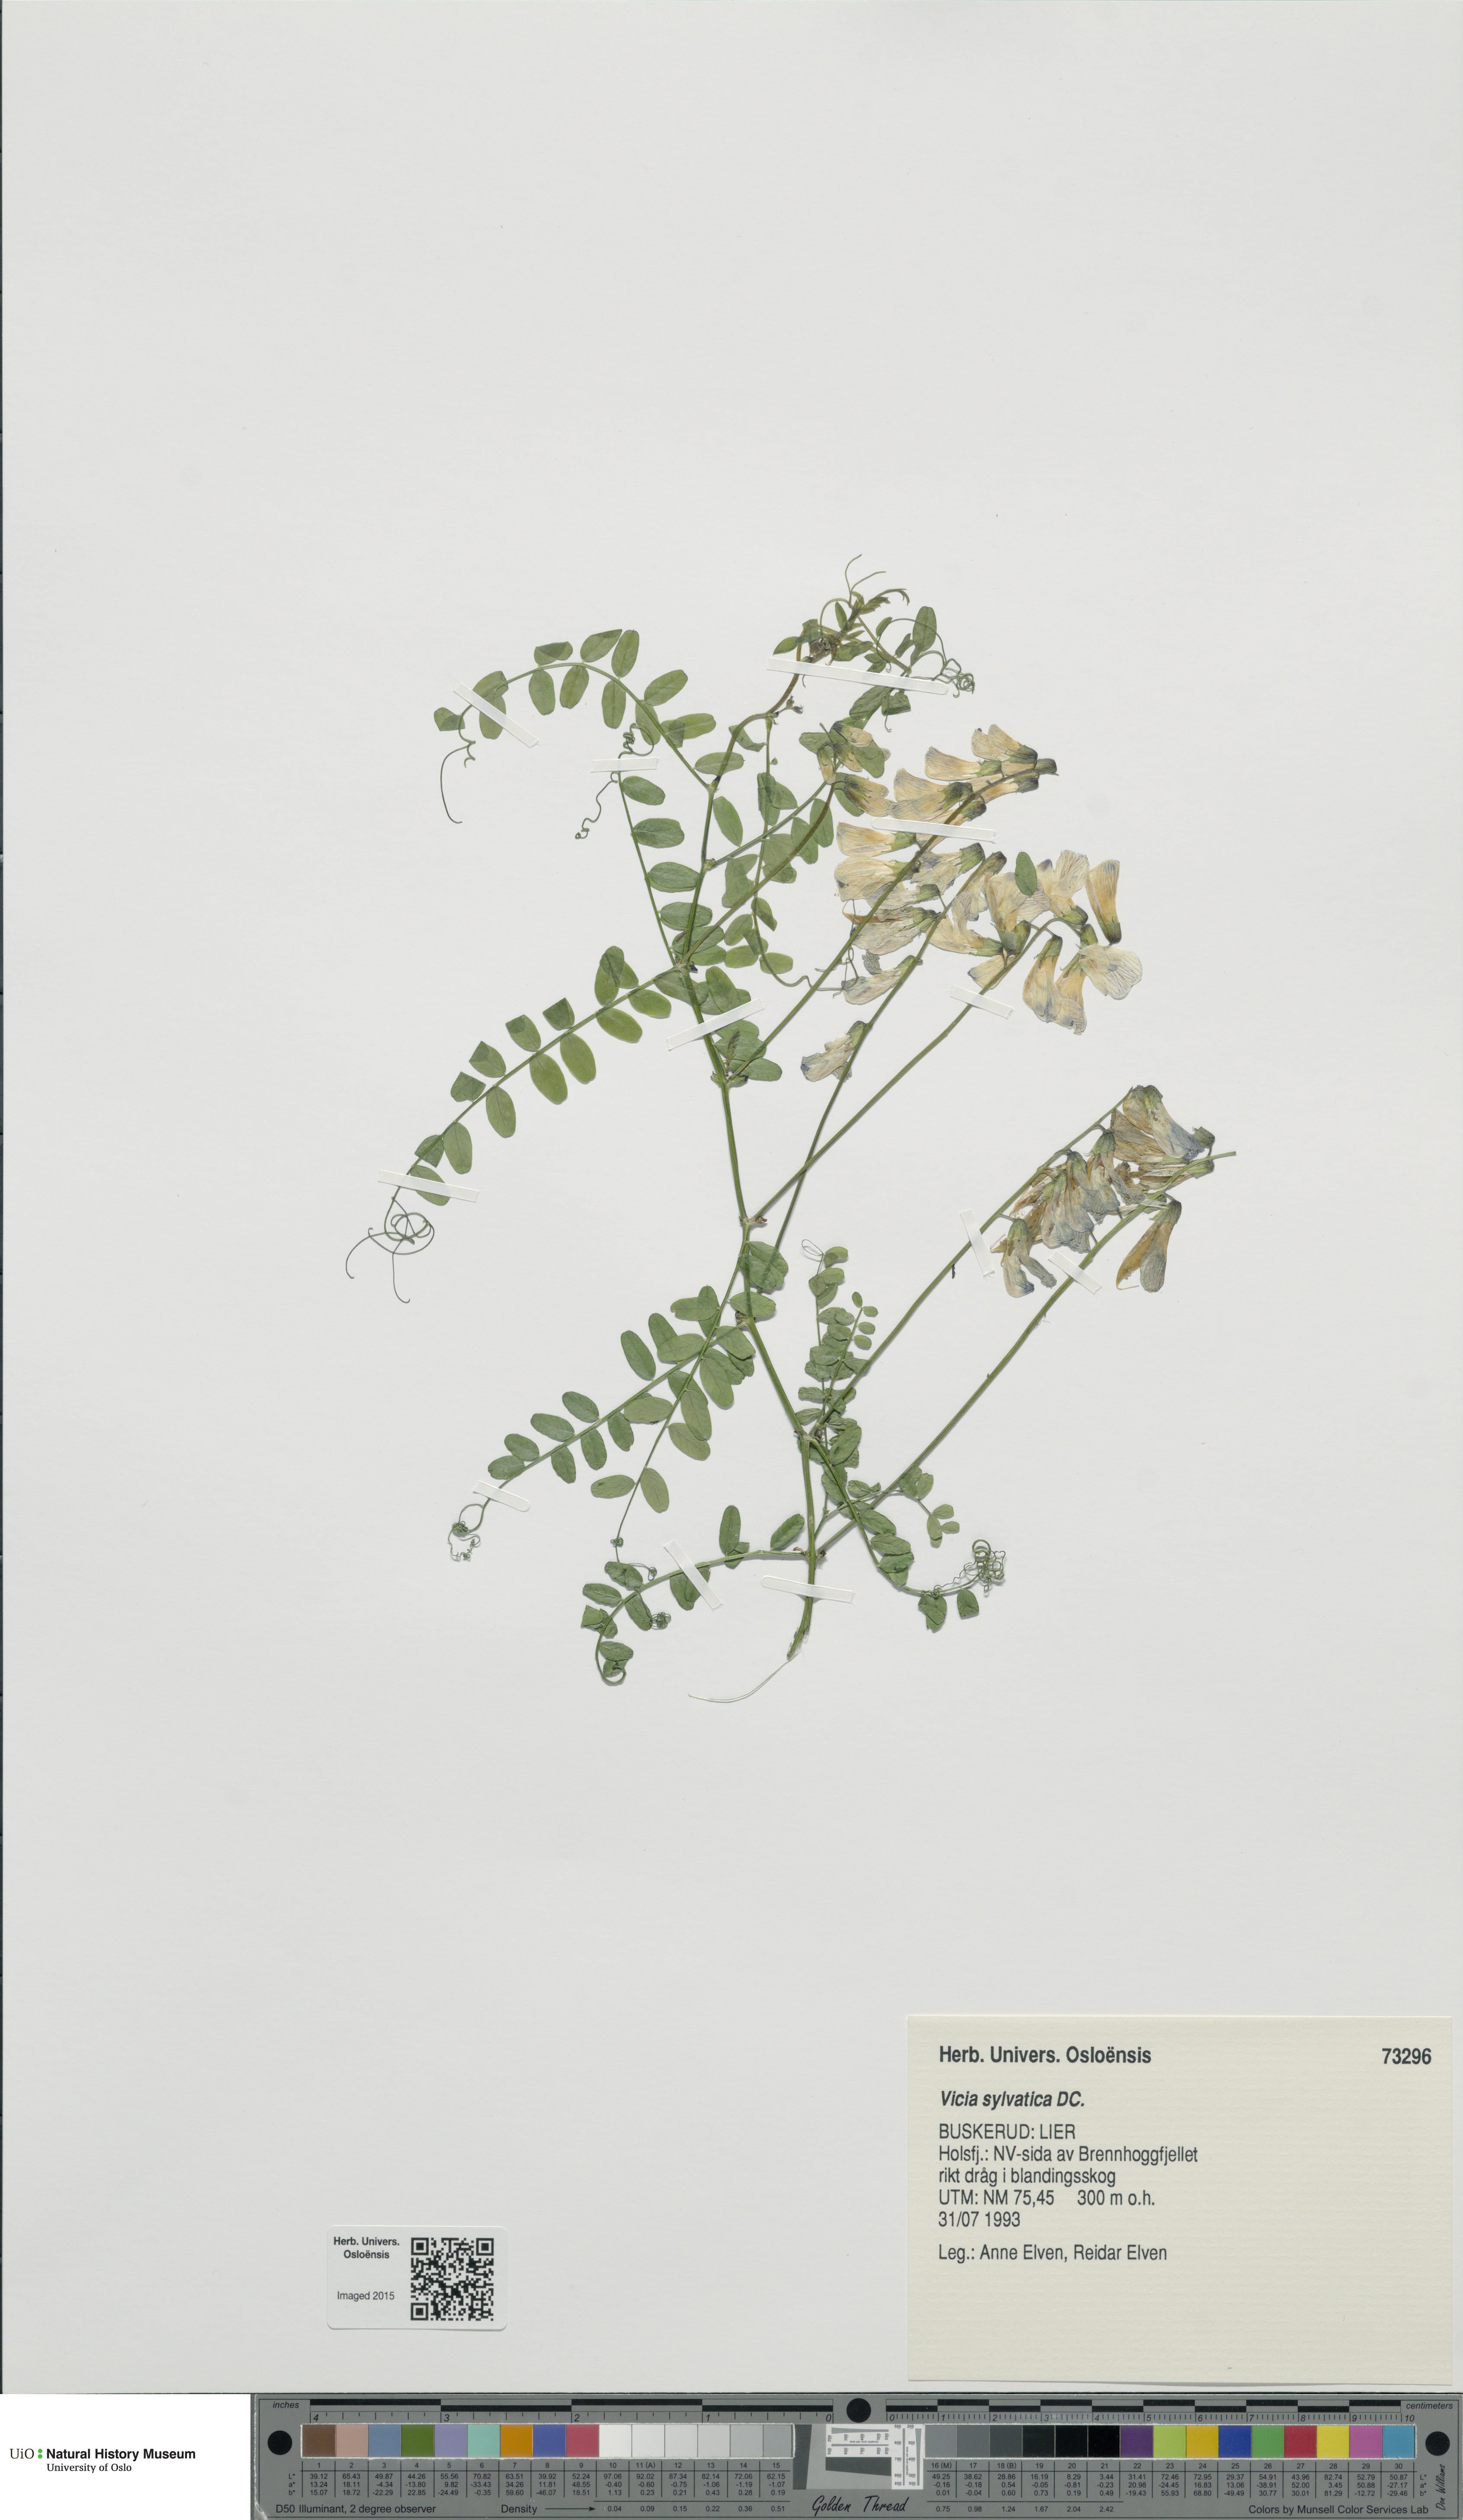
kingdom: Plantae
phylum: Tracheophyta
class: Magnoliopsida
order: Fabales
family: Fabaceae
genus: Vicia
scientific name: Vicia sylvatica
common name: Wood vetch
